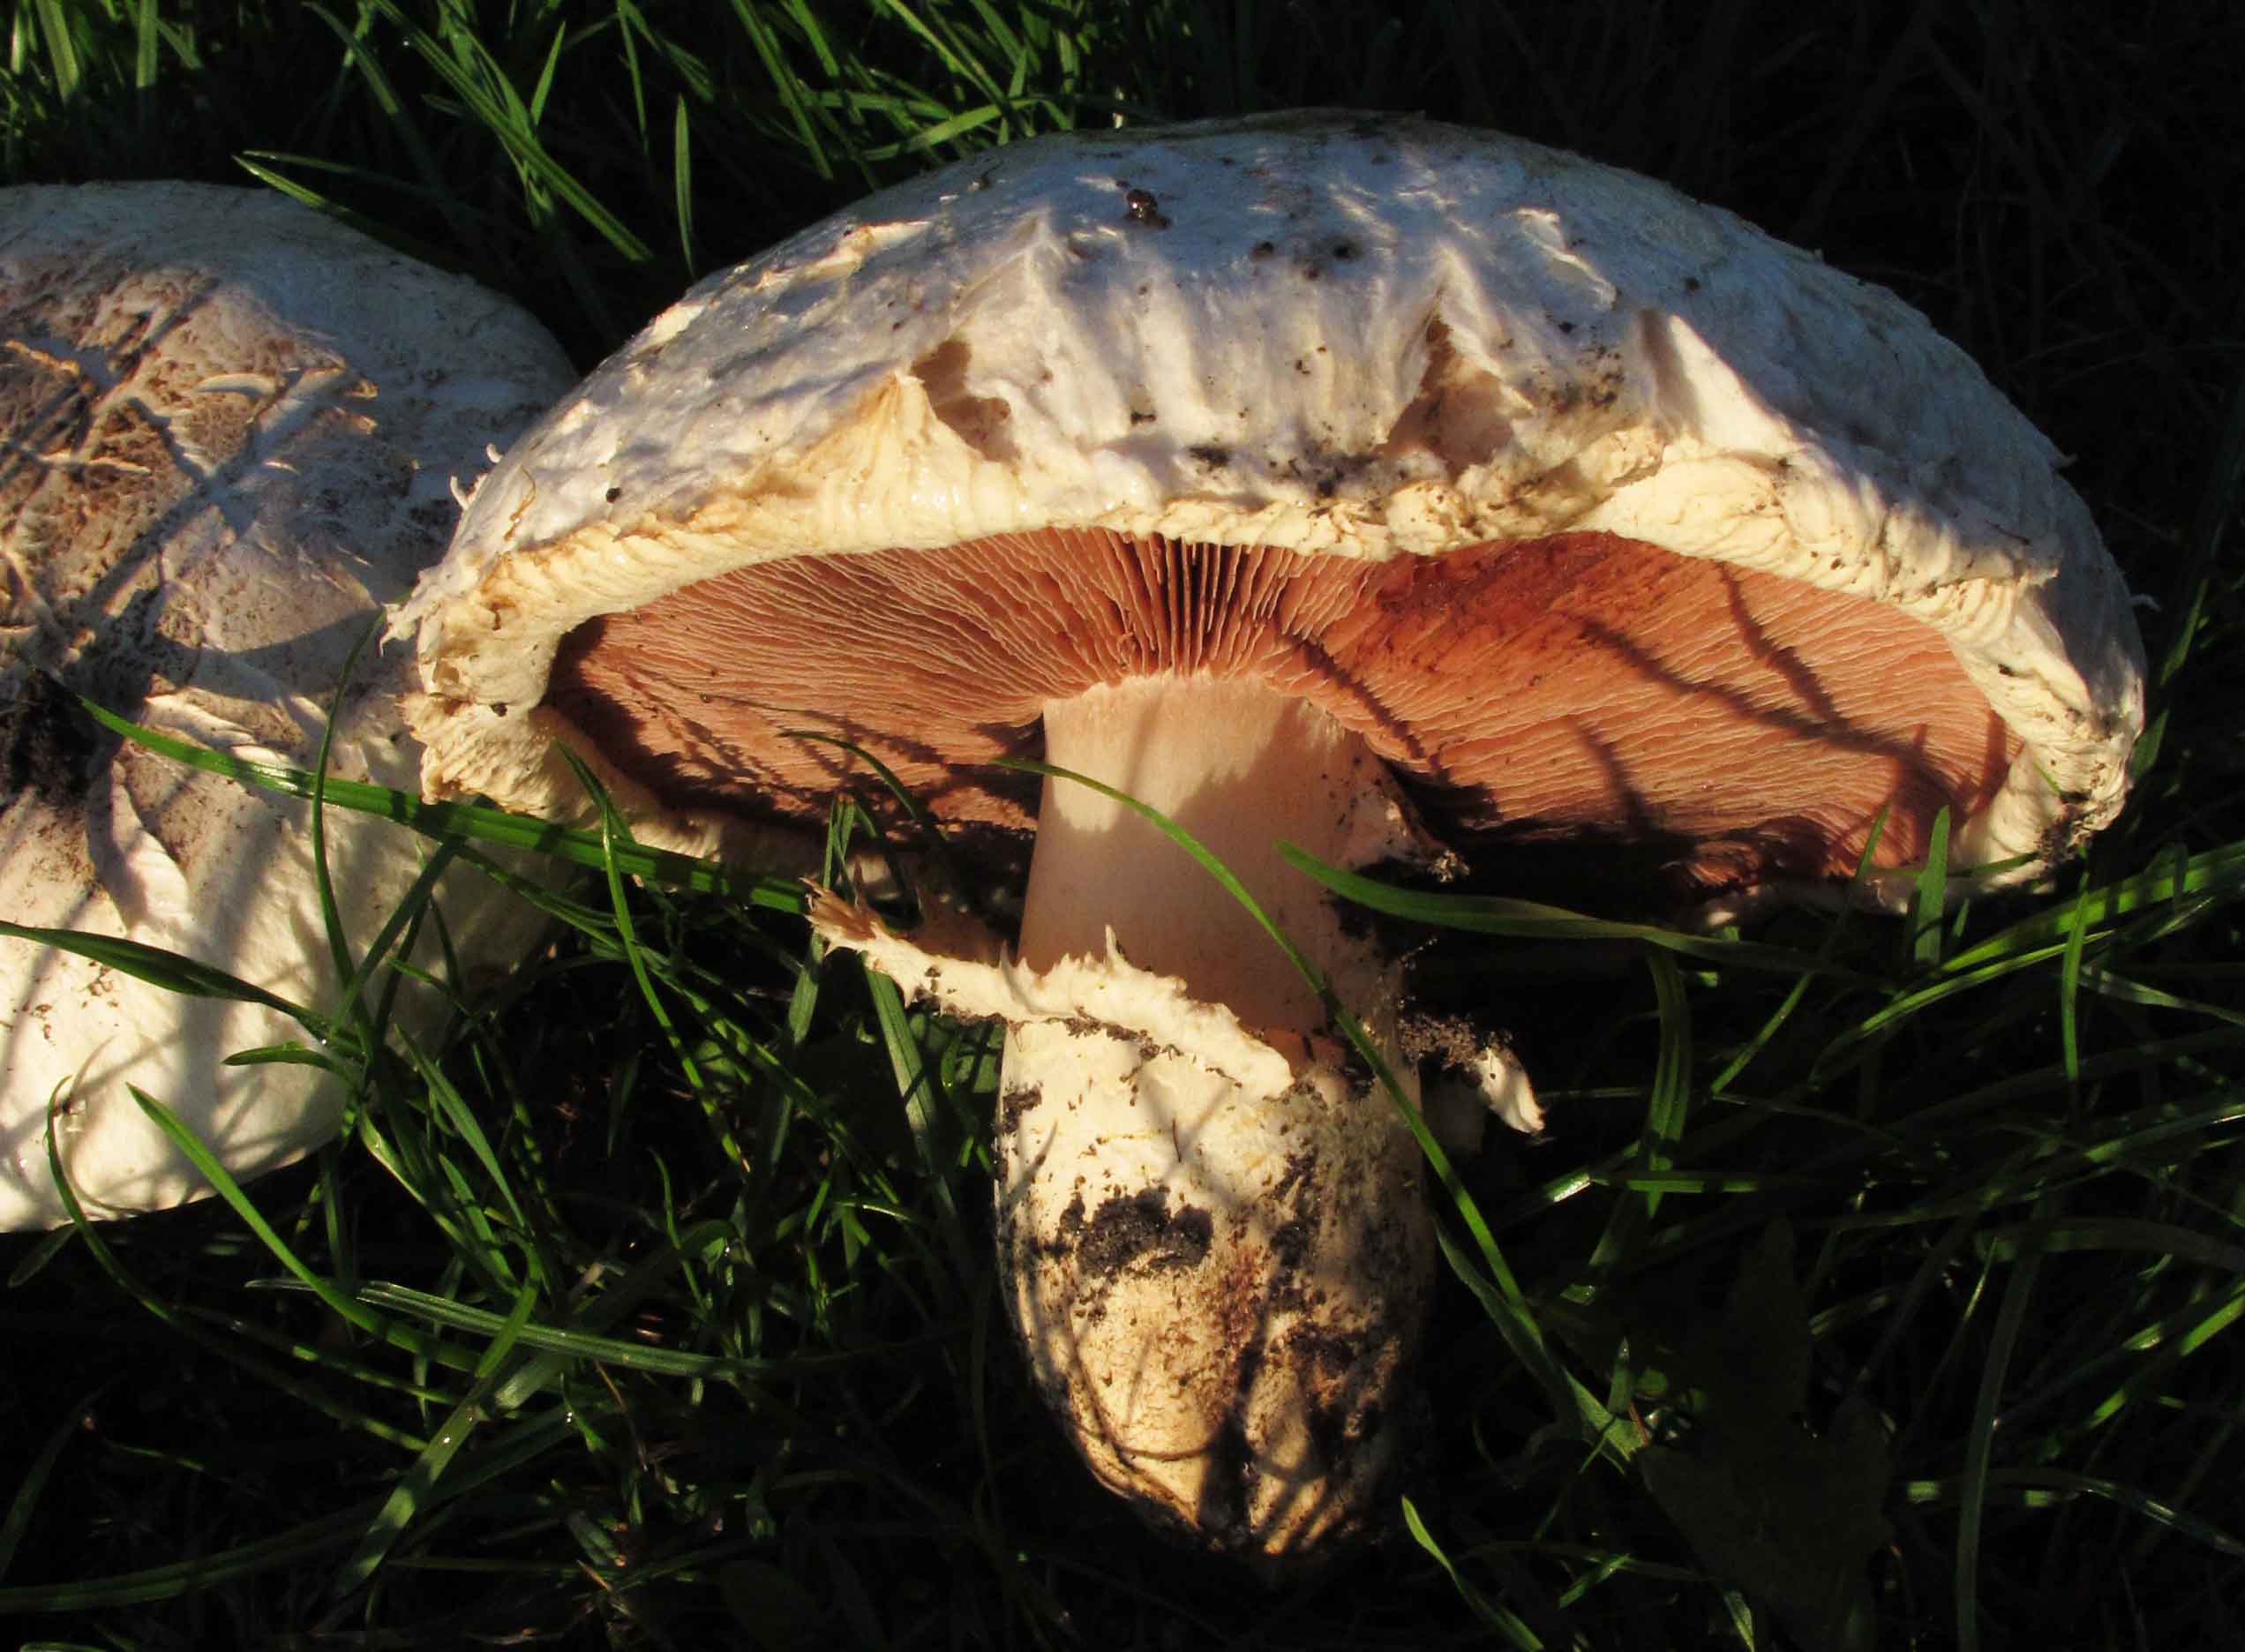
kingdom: Fungi
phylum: Basidiomycota
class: Agaricomycetes
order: Agaricales
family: Agaricaceae
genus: Agaricus
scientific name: Agaricus bernardii
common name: strandengs-champignon
